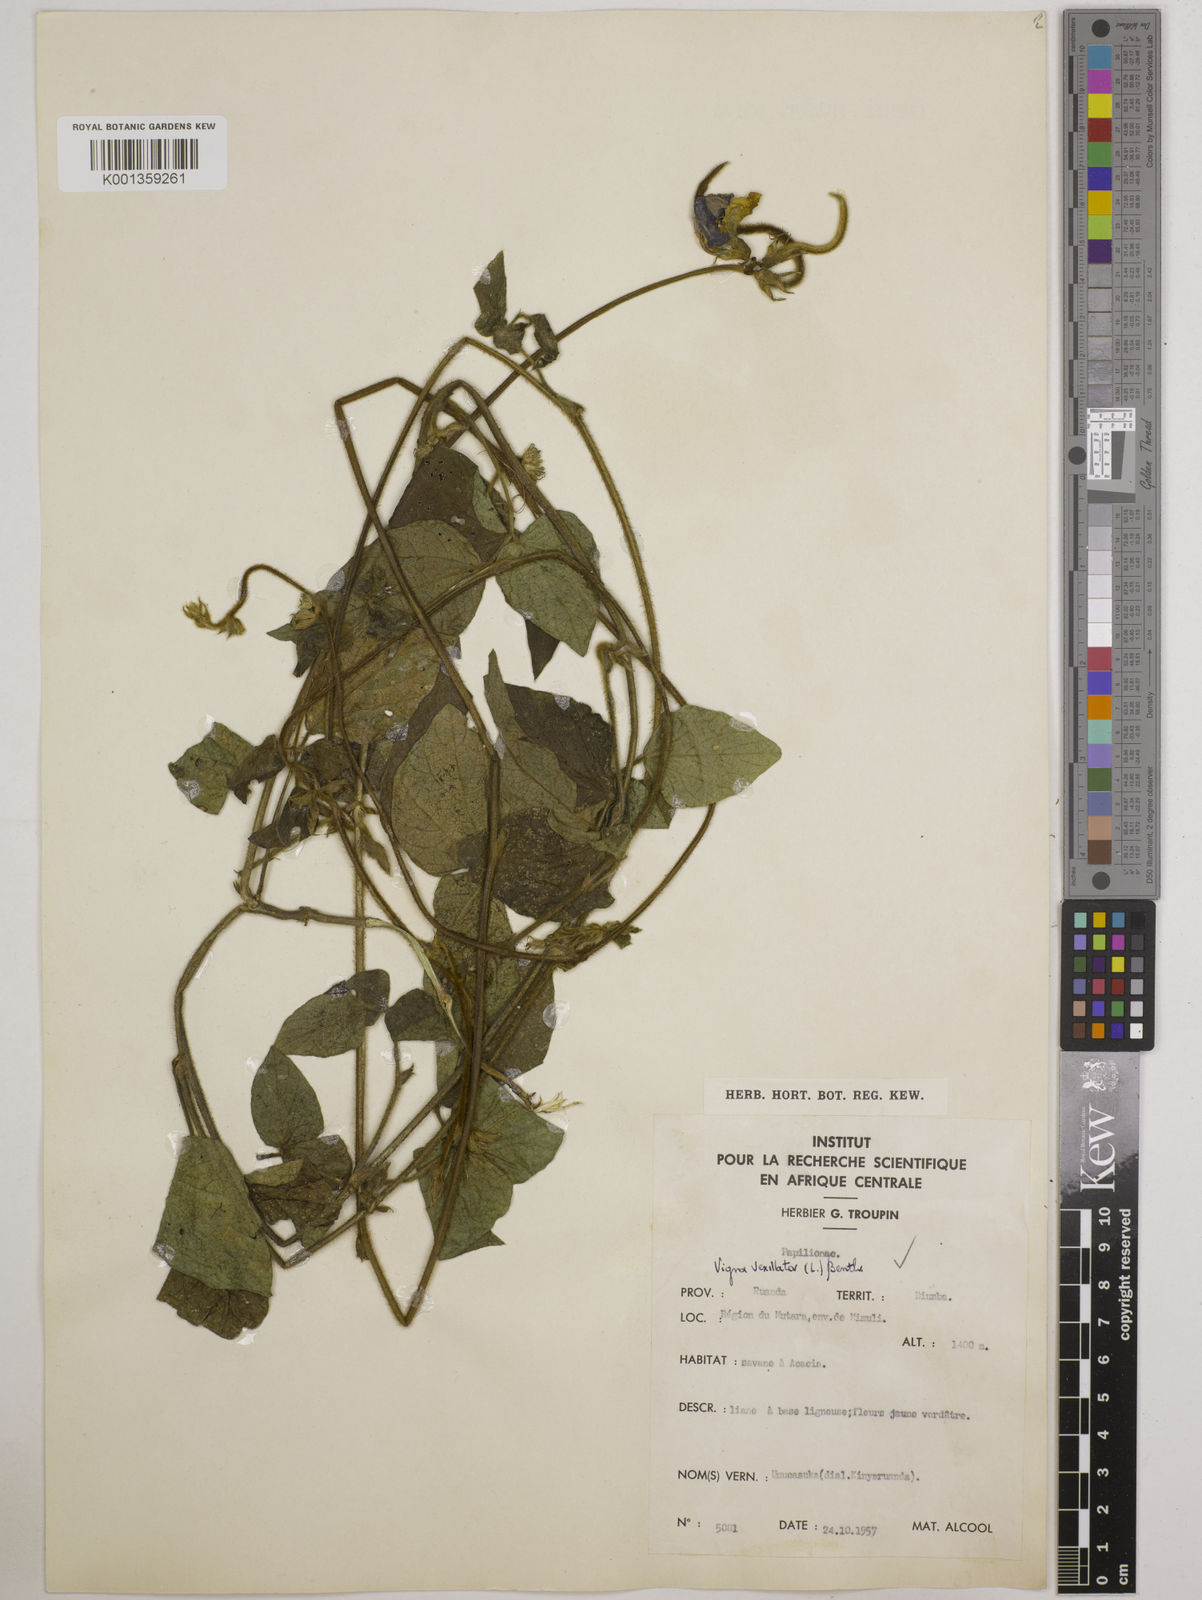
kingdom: Plantae
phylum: Tracheophyta
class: Magnoliopsida
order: Fabales
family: Fabaceae
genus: Vigna
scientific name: Vigna vexillata
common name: Zombi pea
